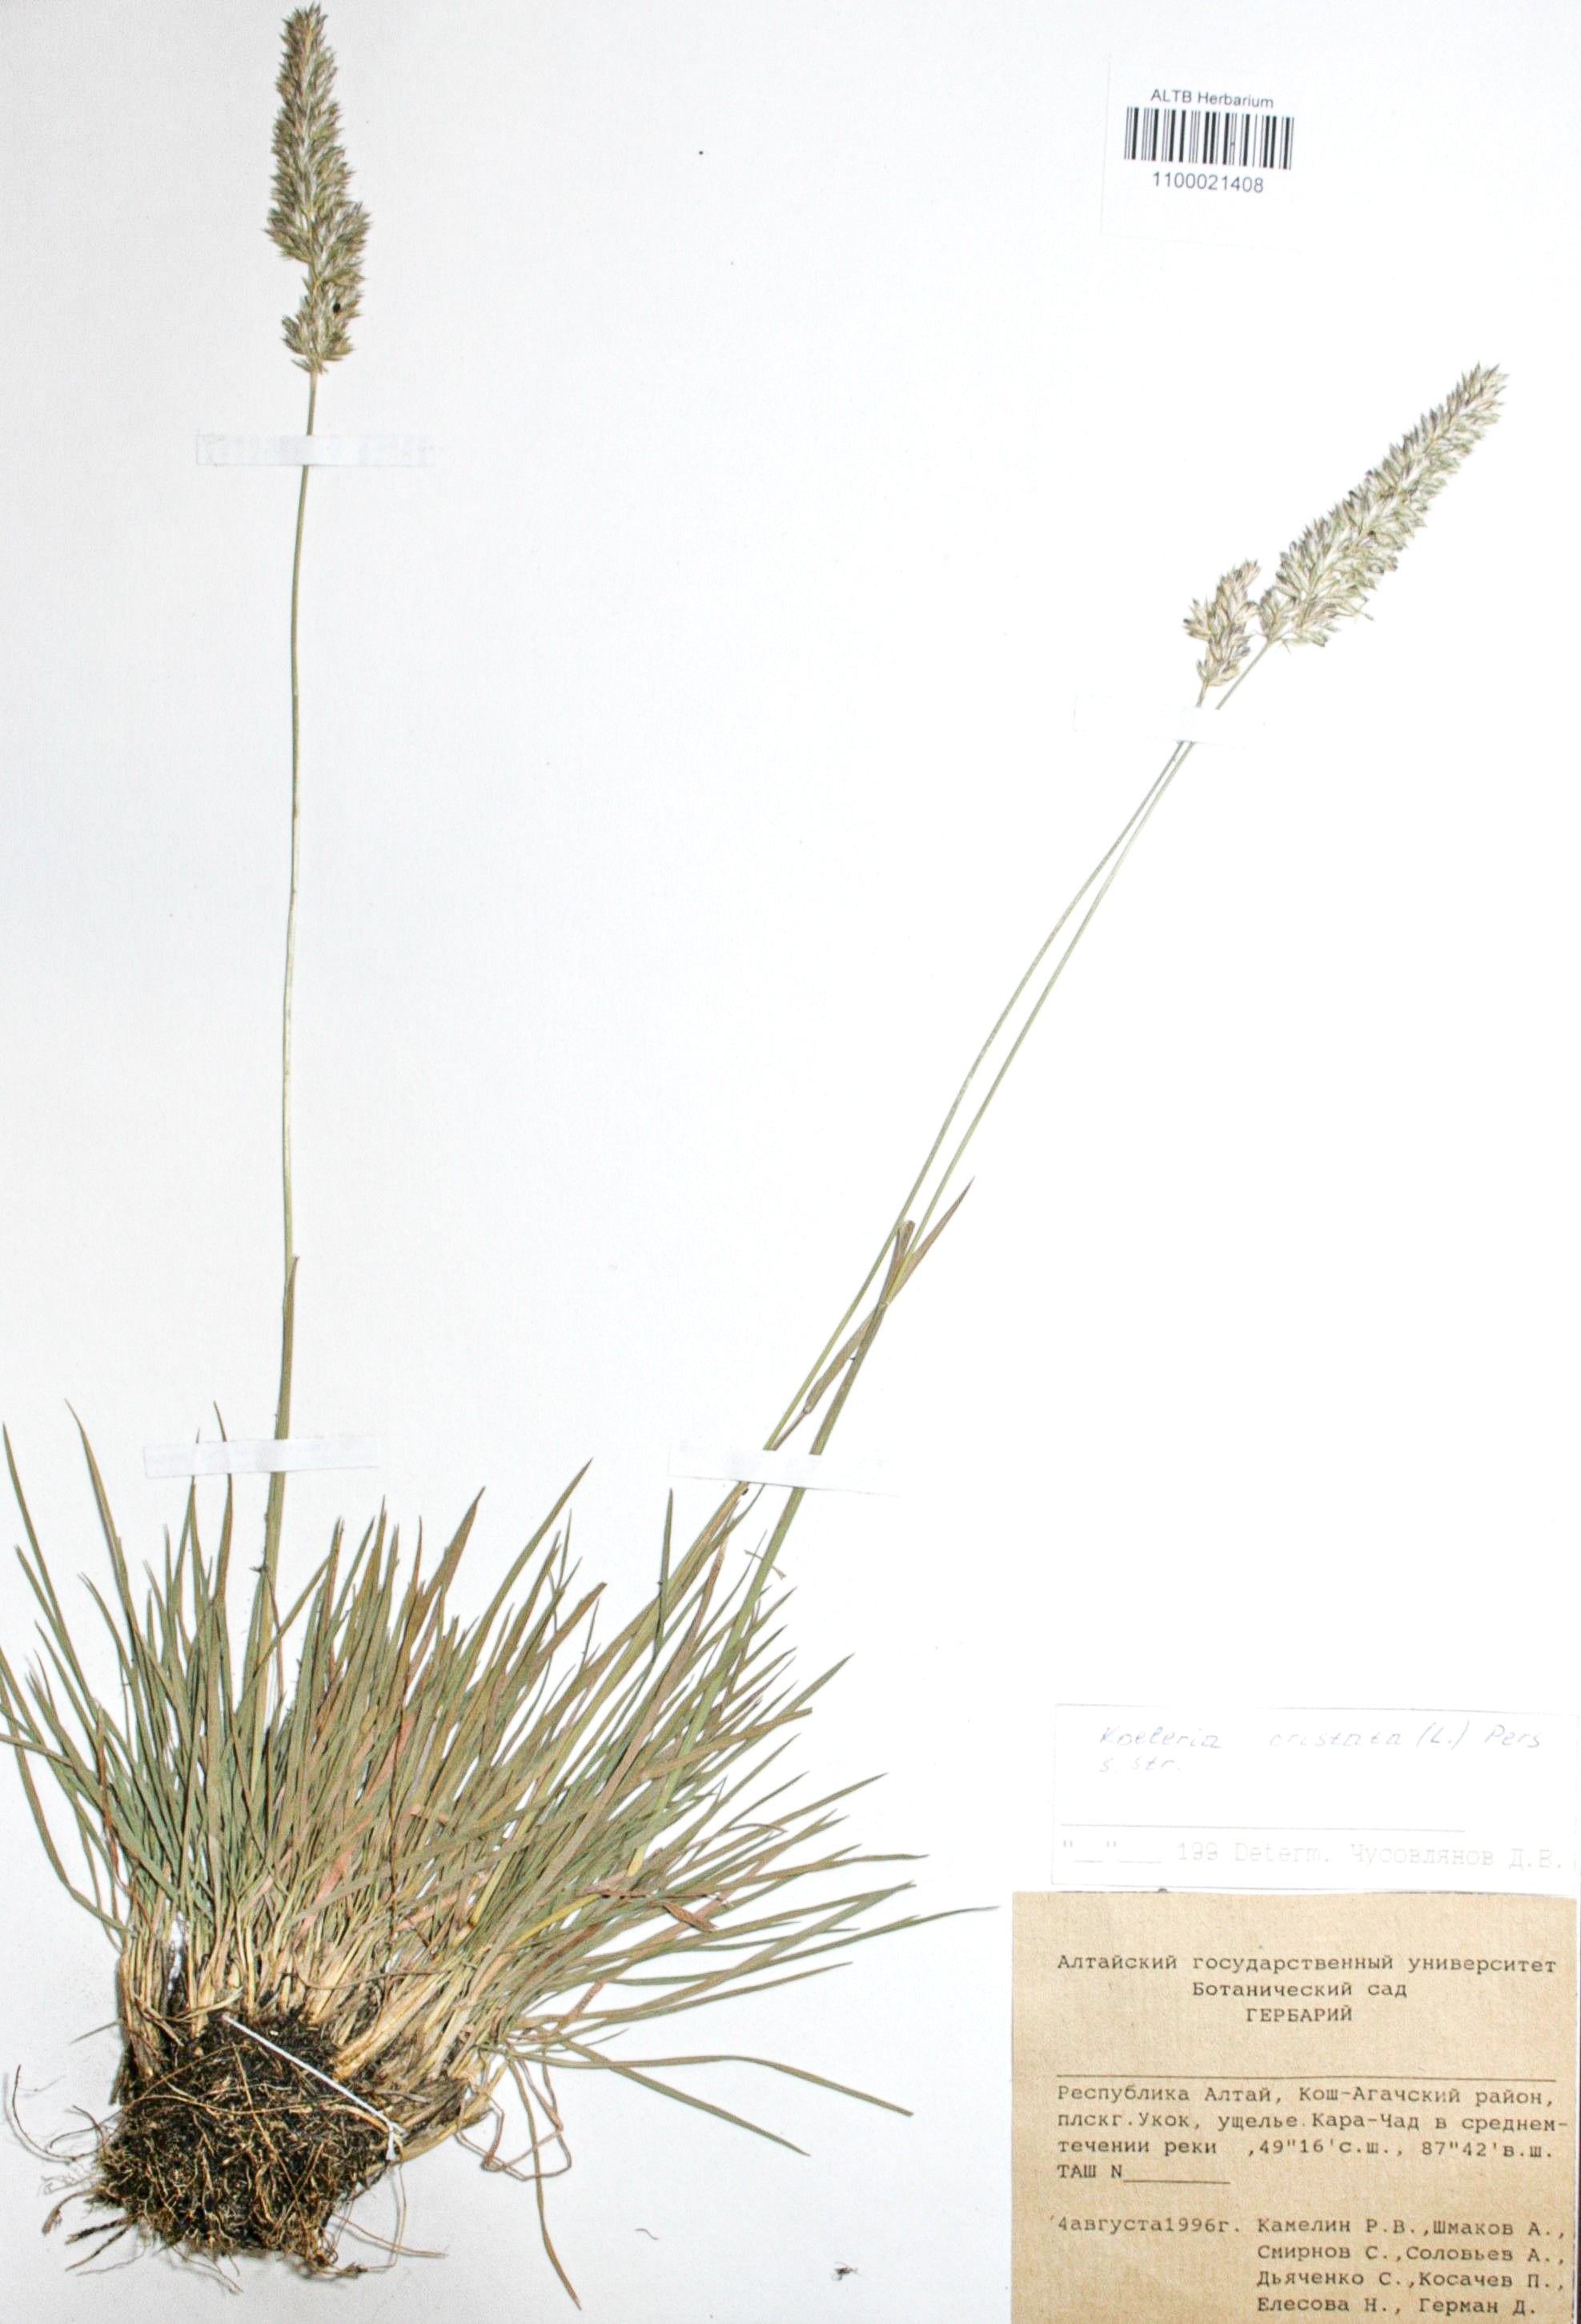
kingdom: Plantae
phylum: Tracheophyta
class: Liliopsida
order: Poales
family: Poaceae
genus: Koeleria
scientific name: Koeleria pyramidata
